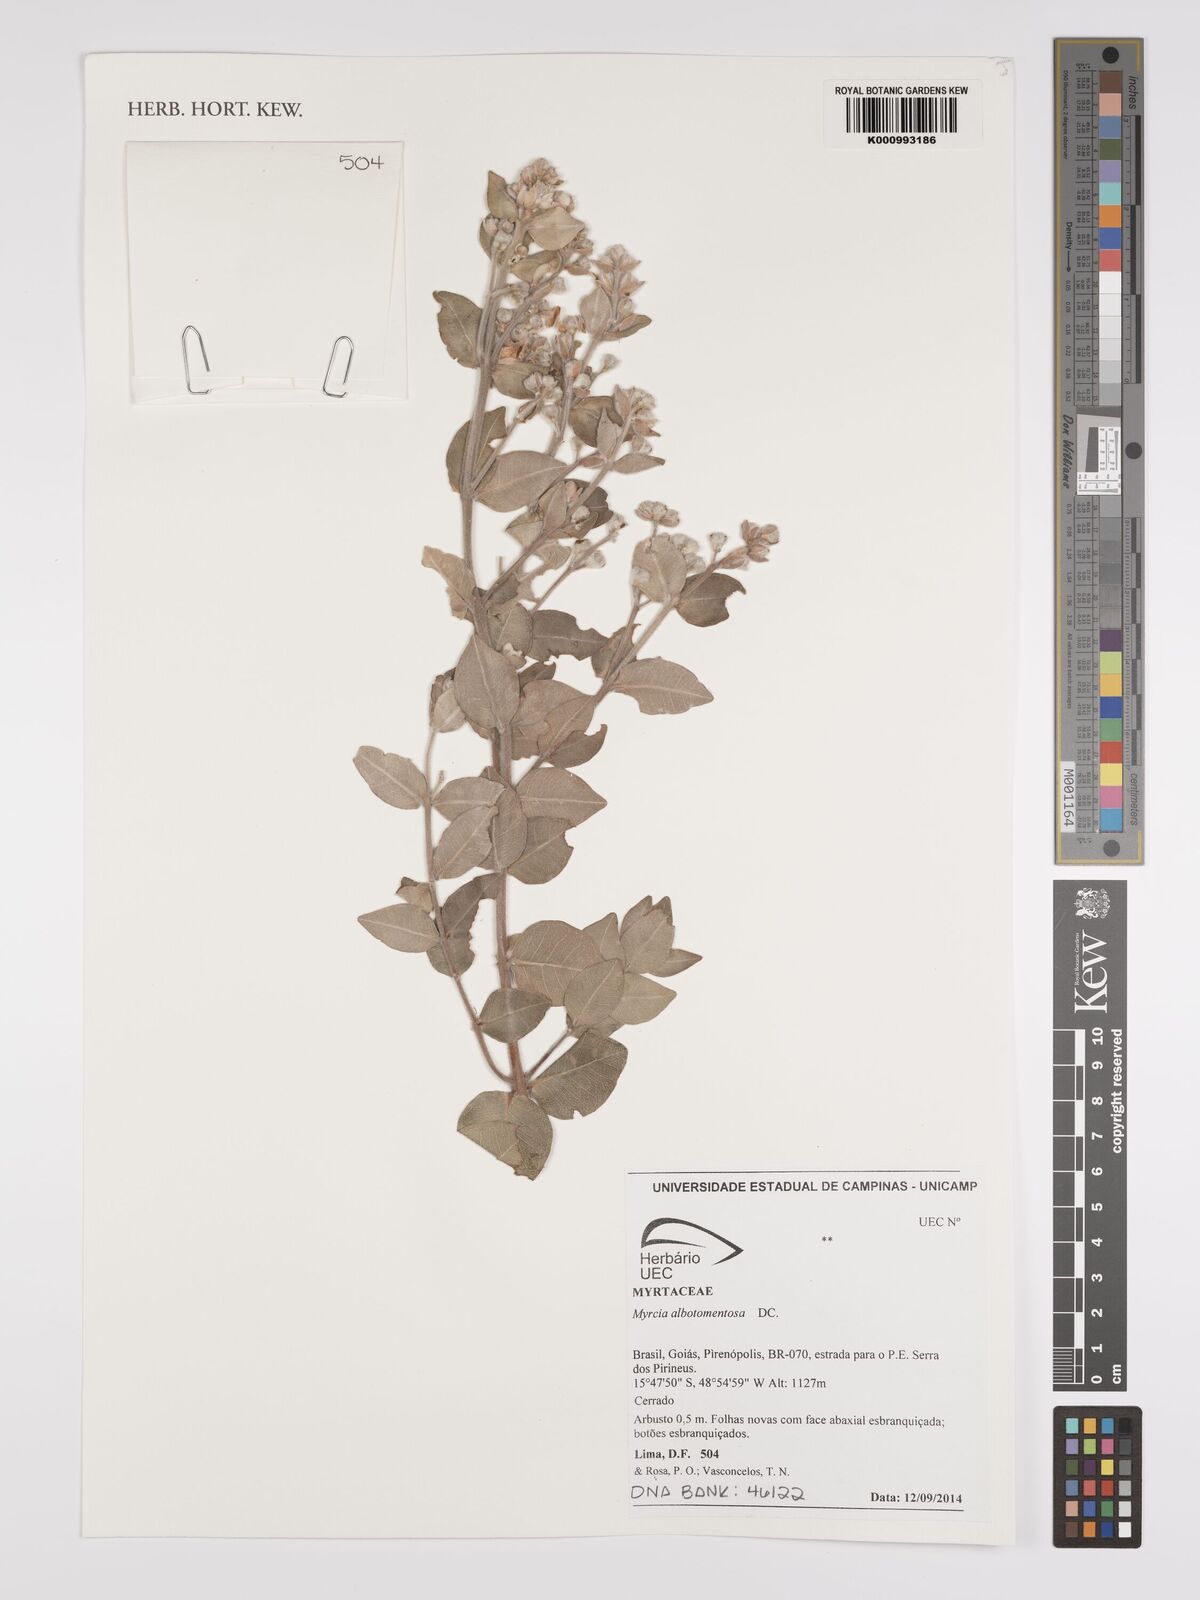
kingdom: Plantae
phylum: Tracheophyta
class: Magnoliopsida
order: Myrtales
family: Myrtaceae
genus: Myrcia
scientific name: Myrcia albotomentosa
